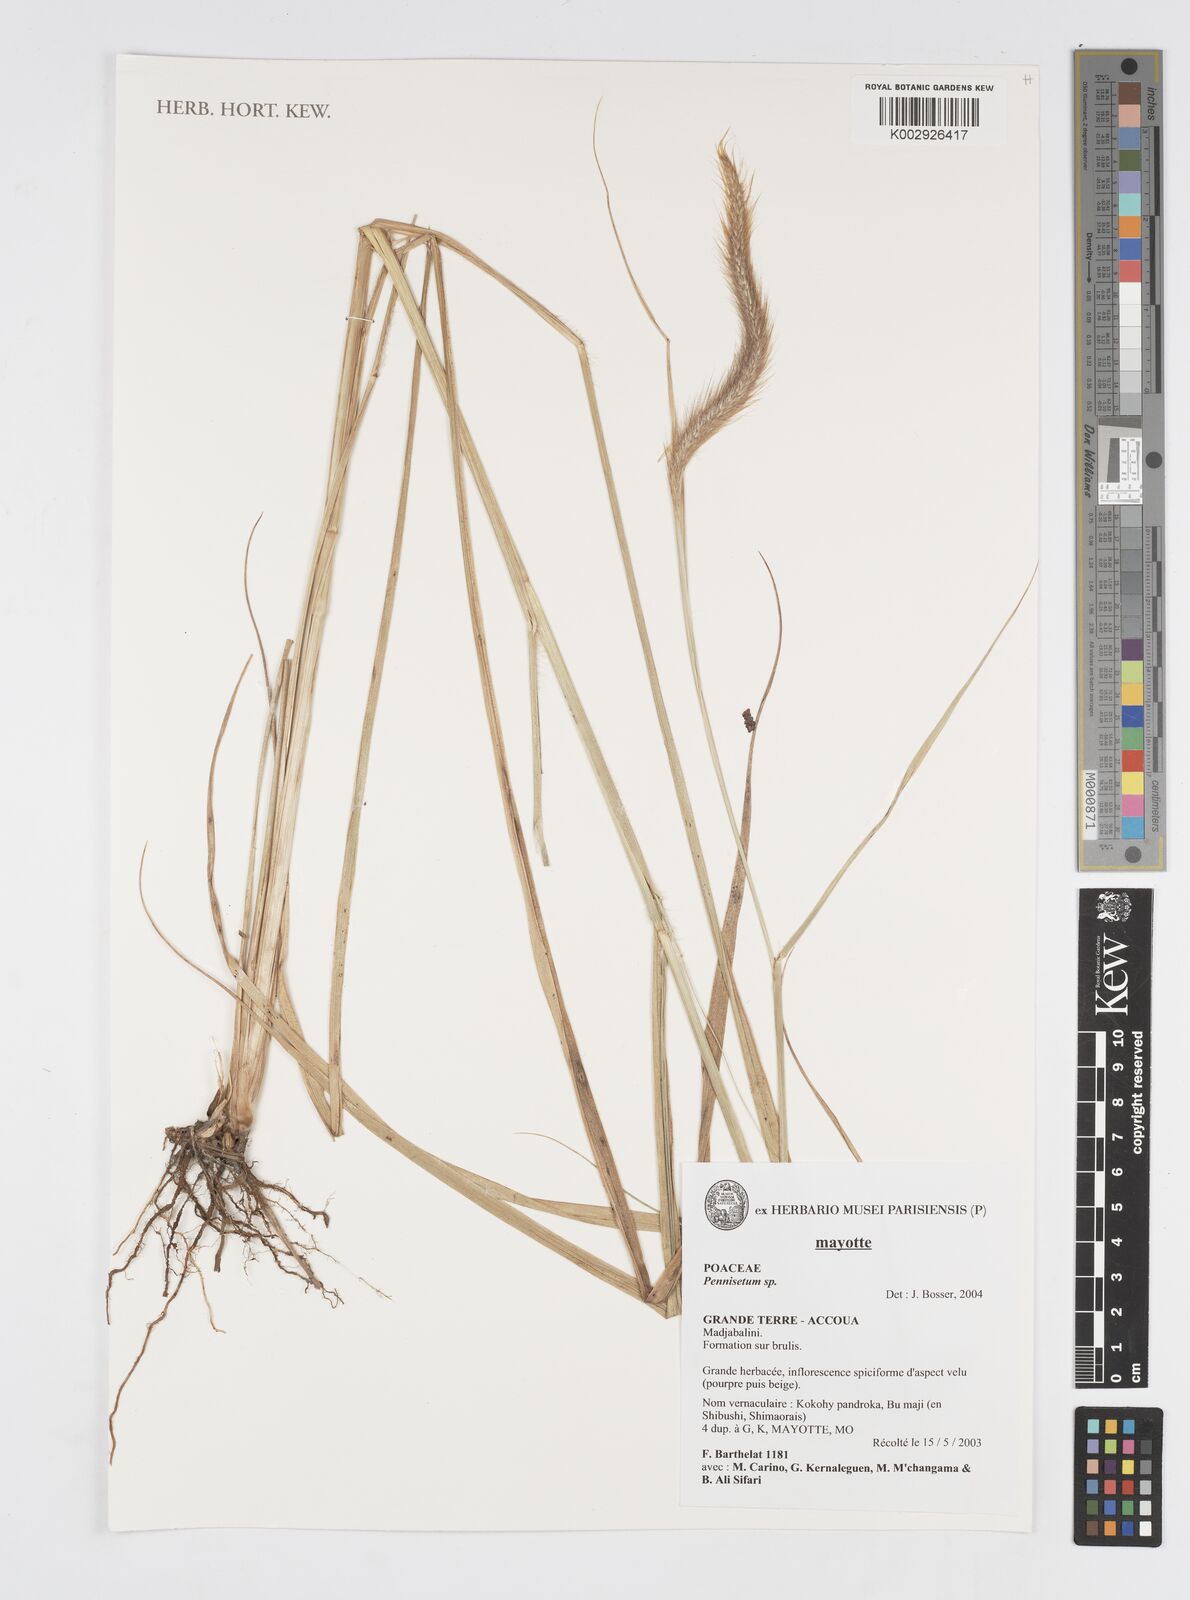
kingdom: Plantae
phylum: Tracheophyta
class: Liliopsida
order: Poales
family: Poaceae
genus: Cenchrus
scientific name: Cenchrus Pennisetum spec
